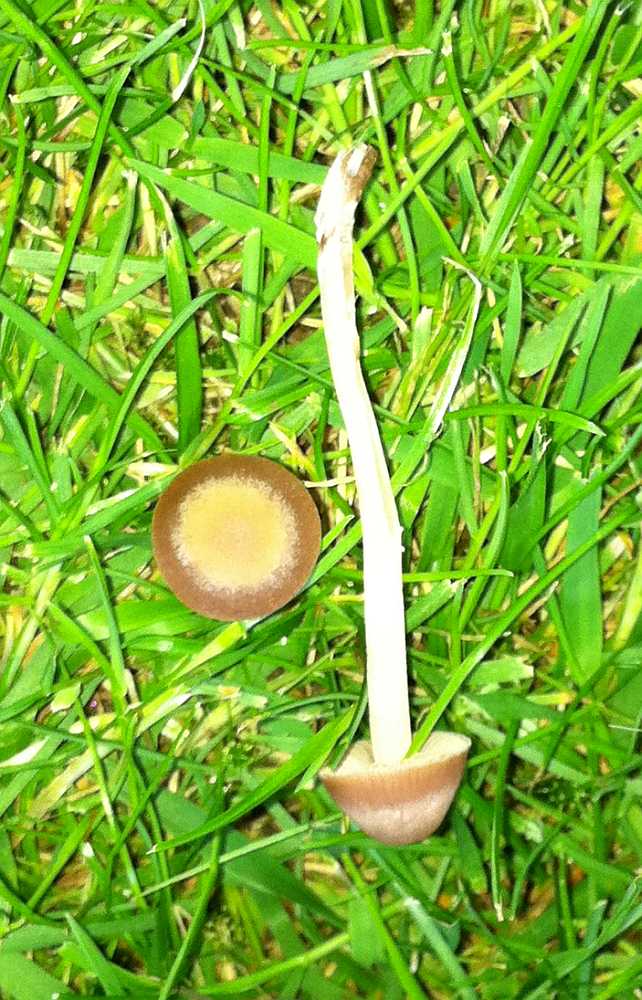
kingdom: Fungi
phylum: Basidiomycota
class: Agaricomycetes
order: Agaricales
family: Bolbitiaceae
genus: Panaeolina
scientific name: Panaeolina foenisecii
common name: høslætsvamp
